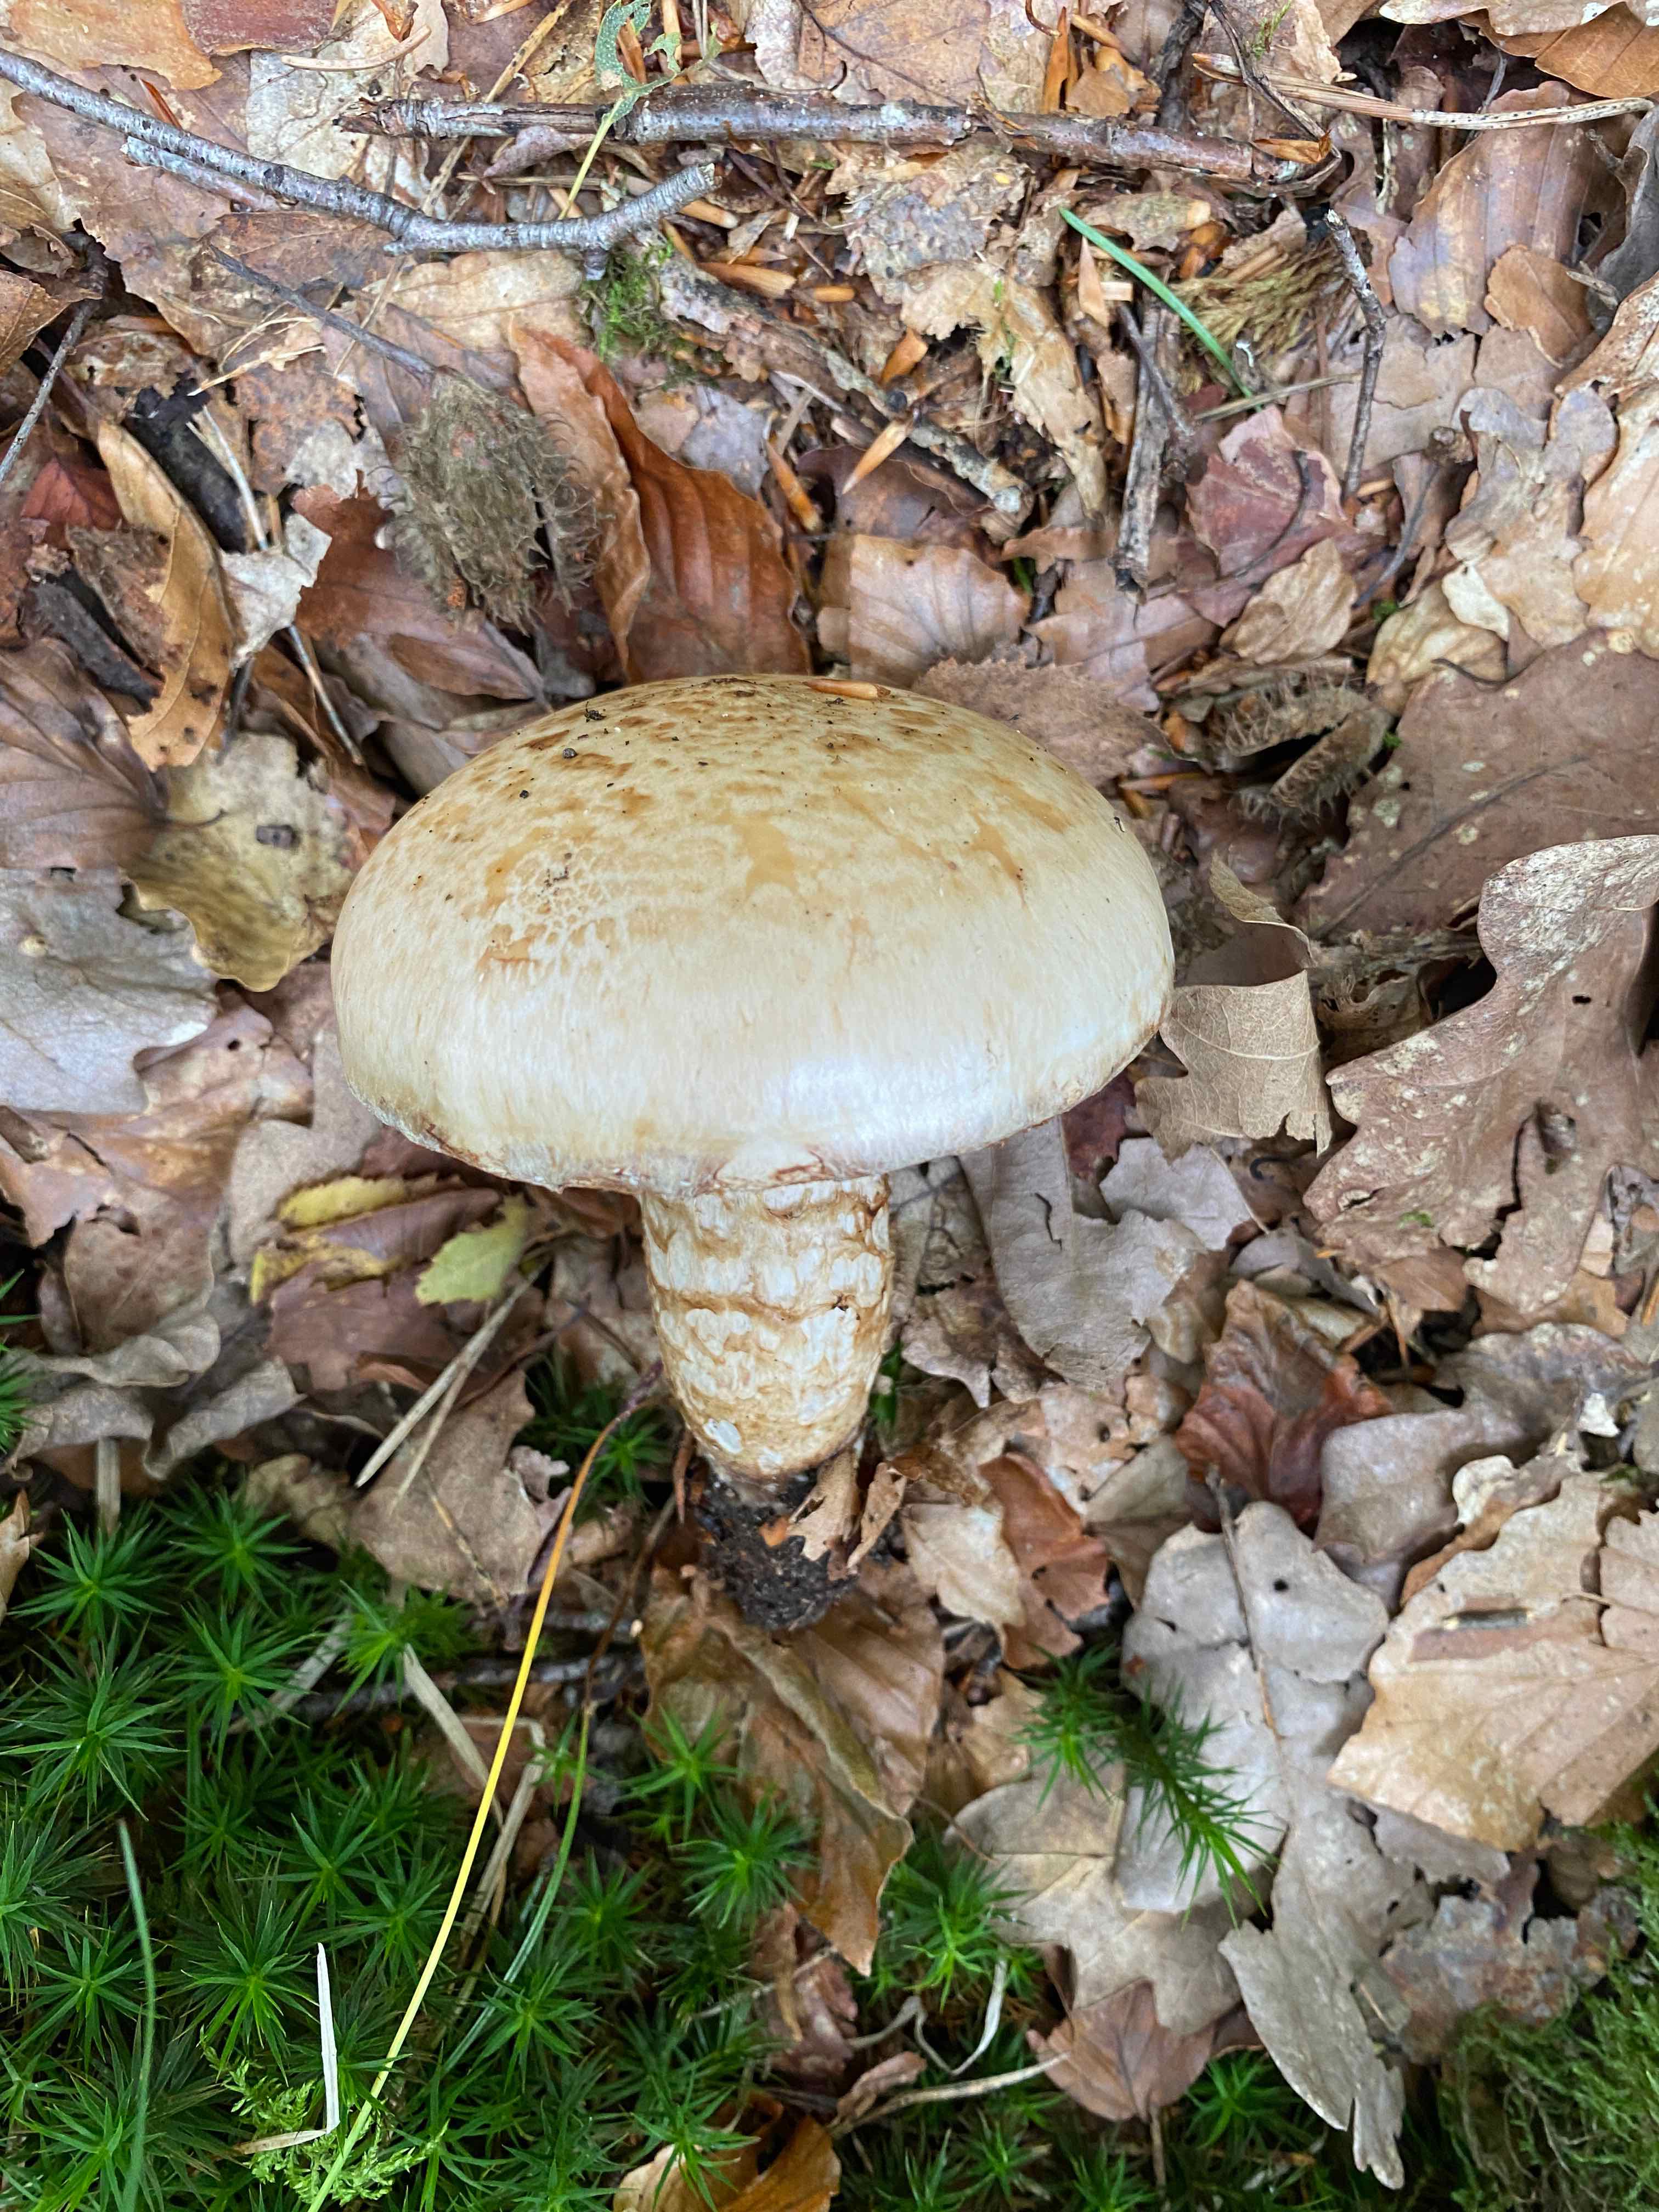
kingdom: Fungi
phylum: Basidiomycota
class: Agaricomycetes
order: Agaricales
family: Hymenogastraceae
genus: Hebeloma
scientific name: Hebeloma radicosum
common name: pælerods-tåreblad
